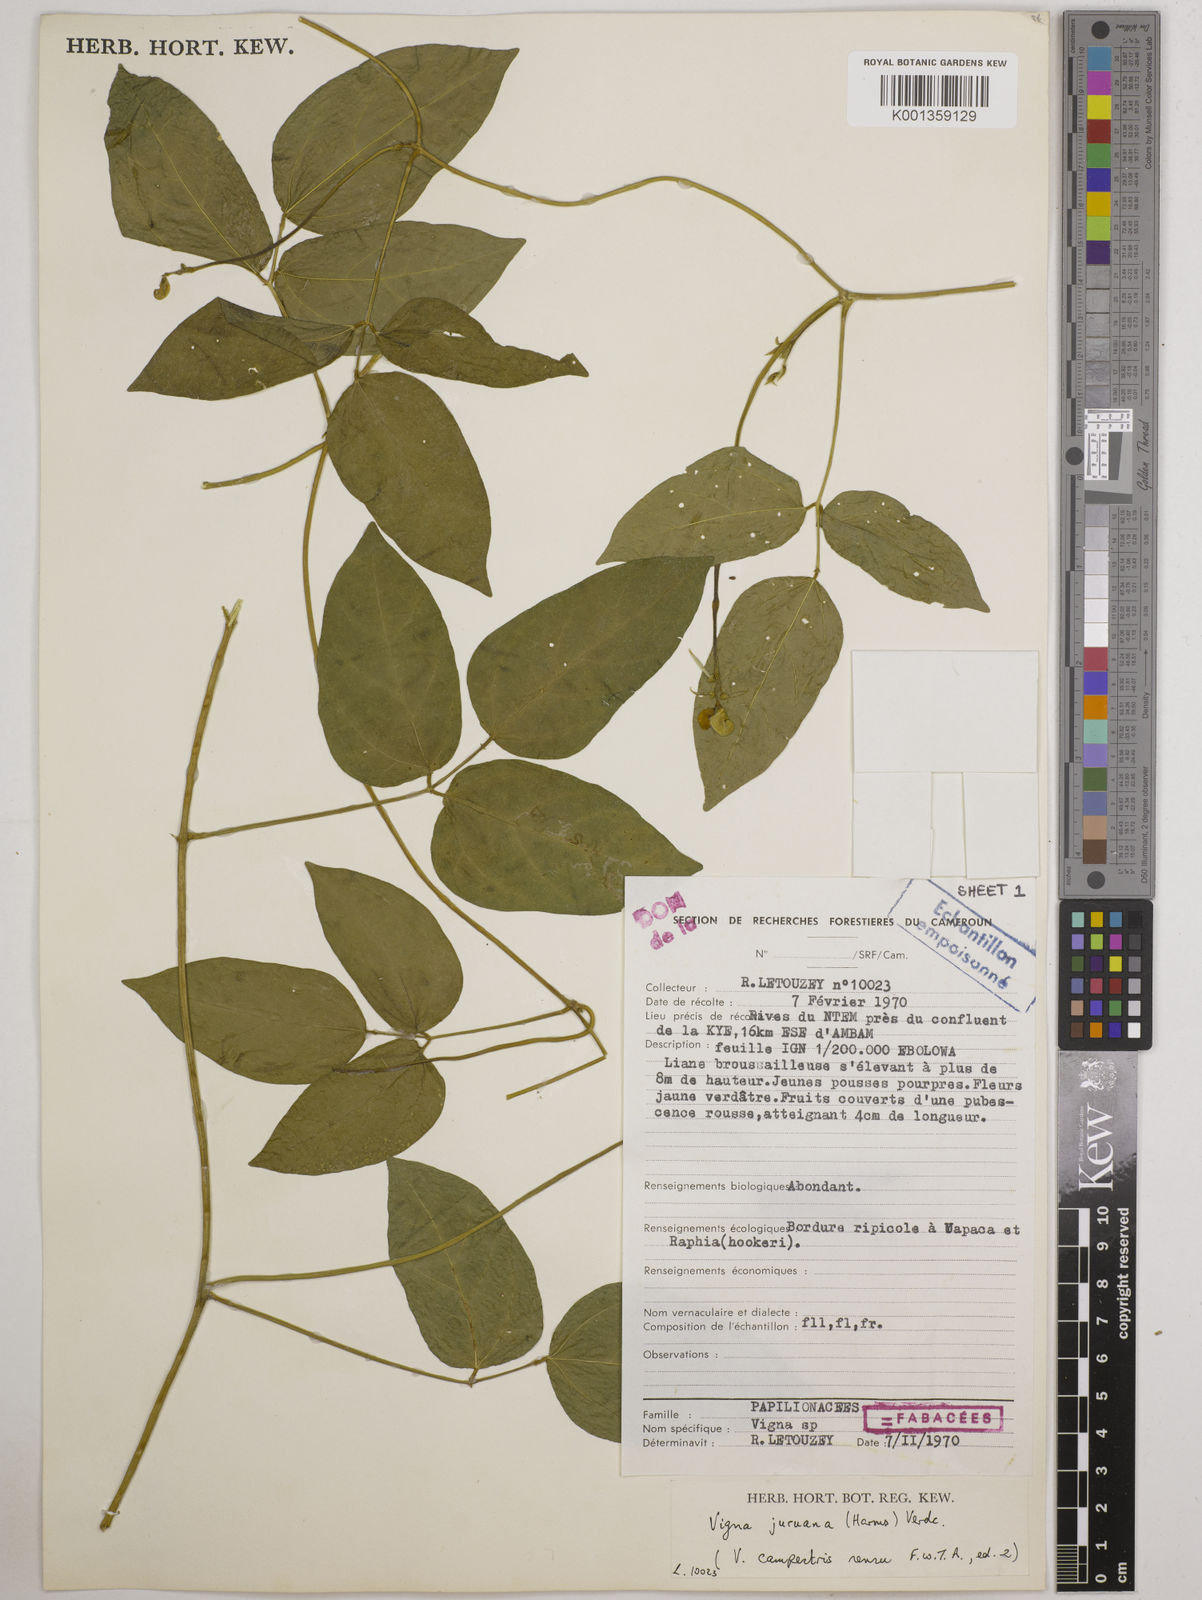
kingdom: Plantae
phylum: Tracheophyta
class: Magnoliopsida
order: Fabales
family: Fabaceae
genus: Vigna
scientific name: Vigna juruana
